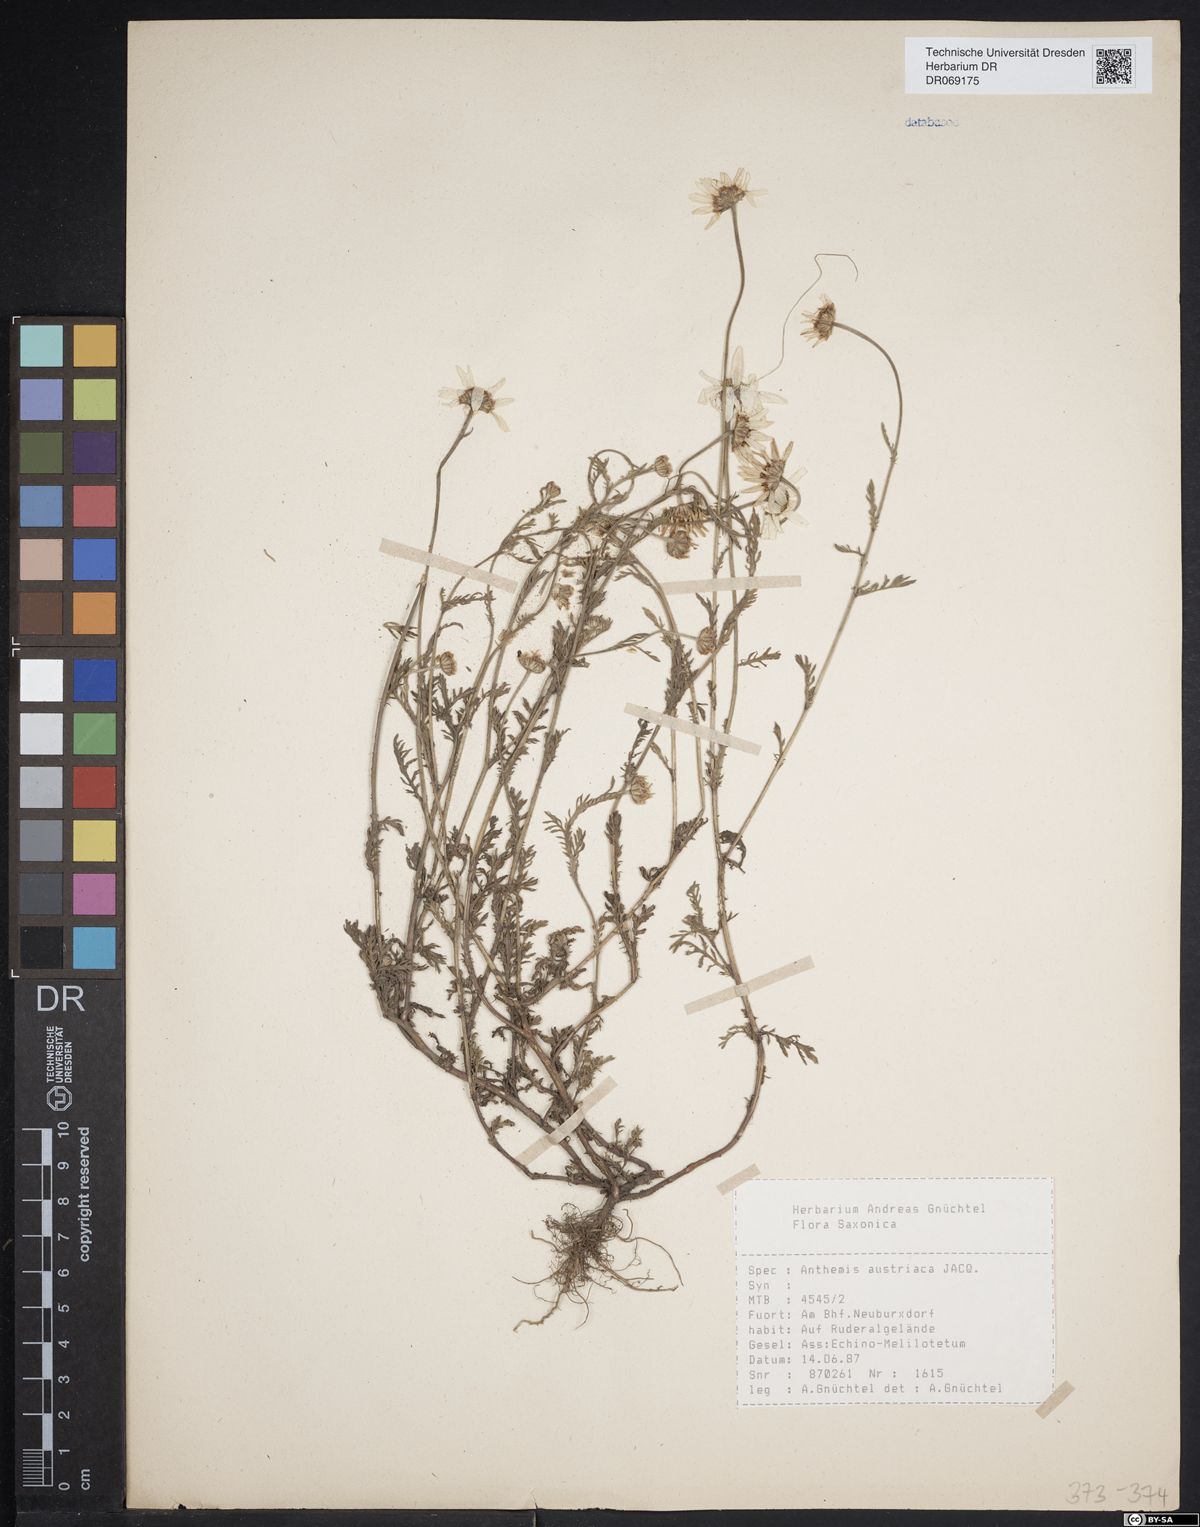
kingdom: Plantae
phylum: Tracheophyta
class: Magnoliopsida
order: Asterales
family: Asteraceae
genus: Cota
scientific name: Cota austriaca
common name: Austrian chamomile
